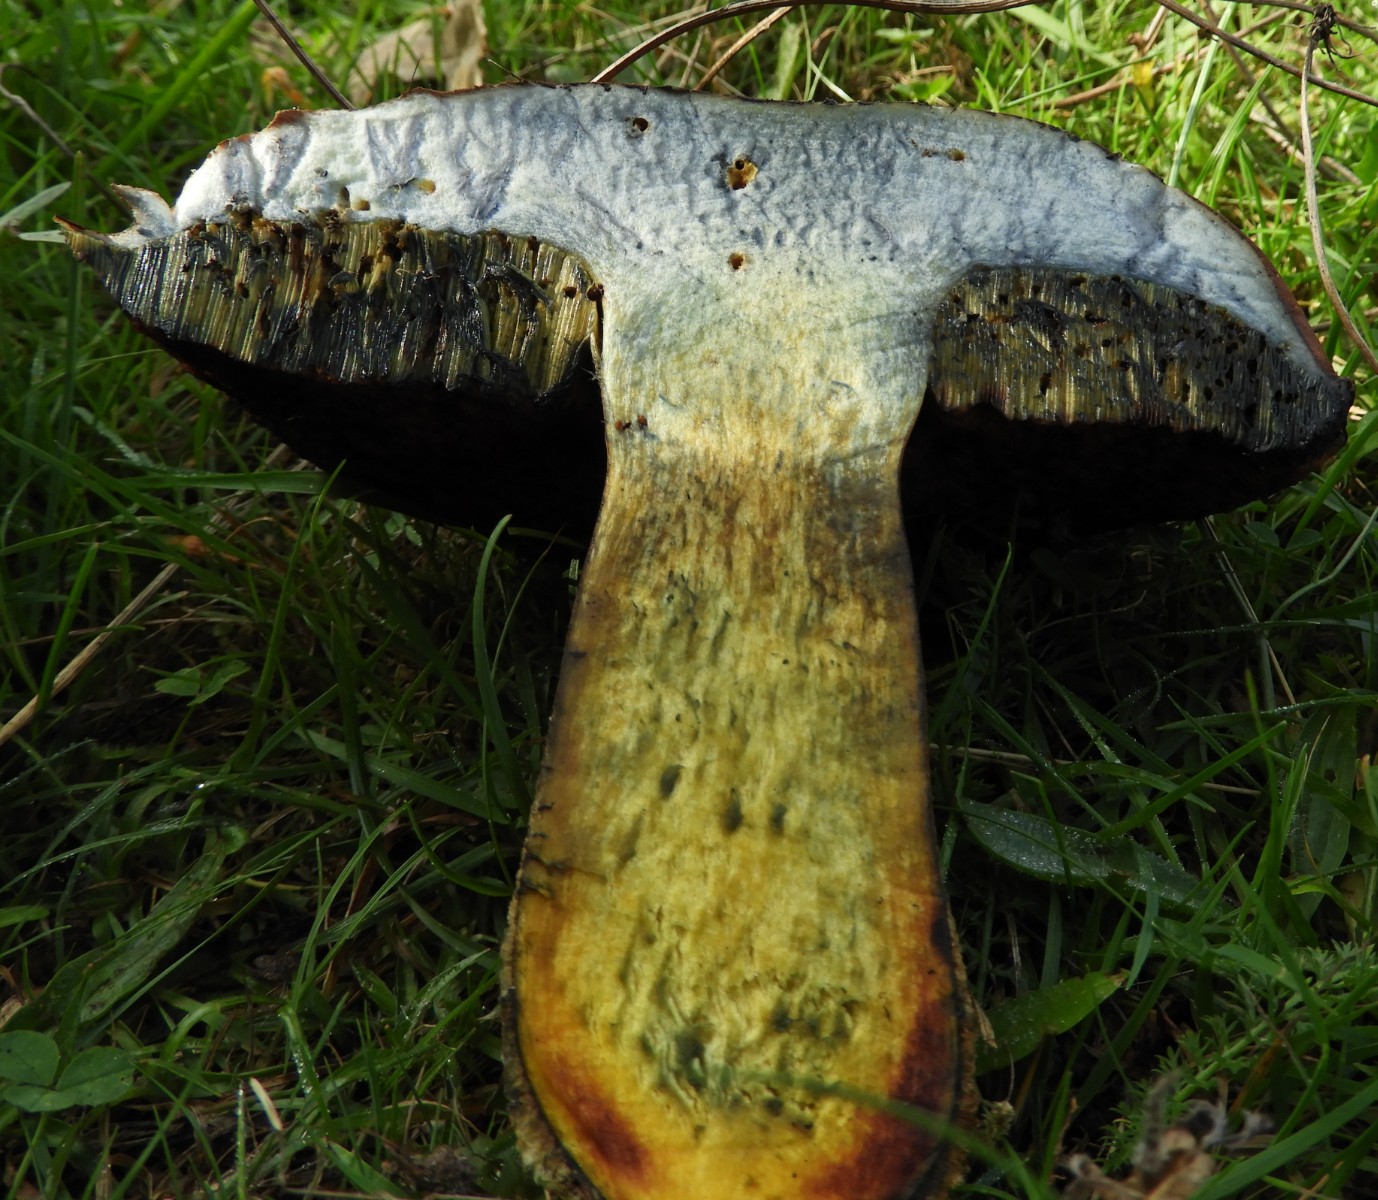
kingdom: Fungi
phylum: Basidiomycota
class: Agaricomycetes
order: Boletales
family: Boletaceae
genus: Neoboletus
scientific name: Neoboletus erythropus
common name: punktstokket indigorørhat
